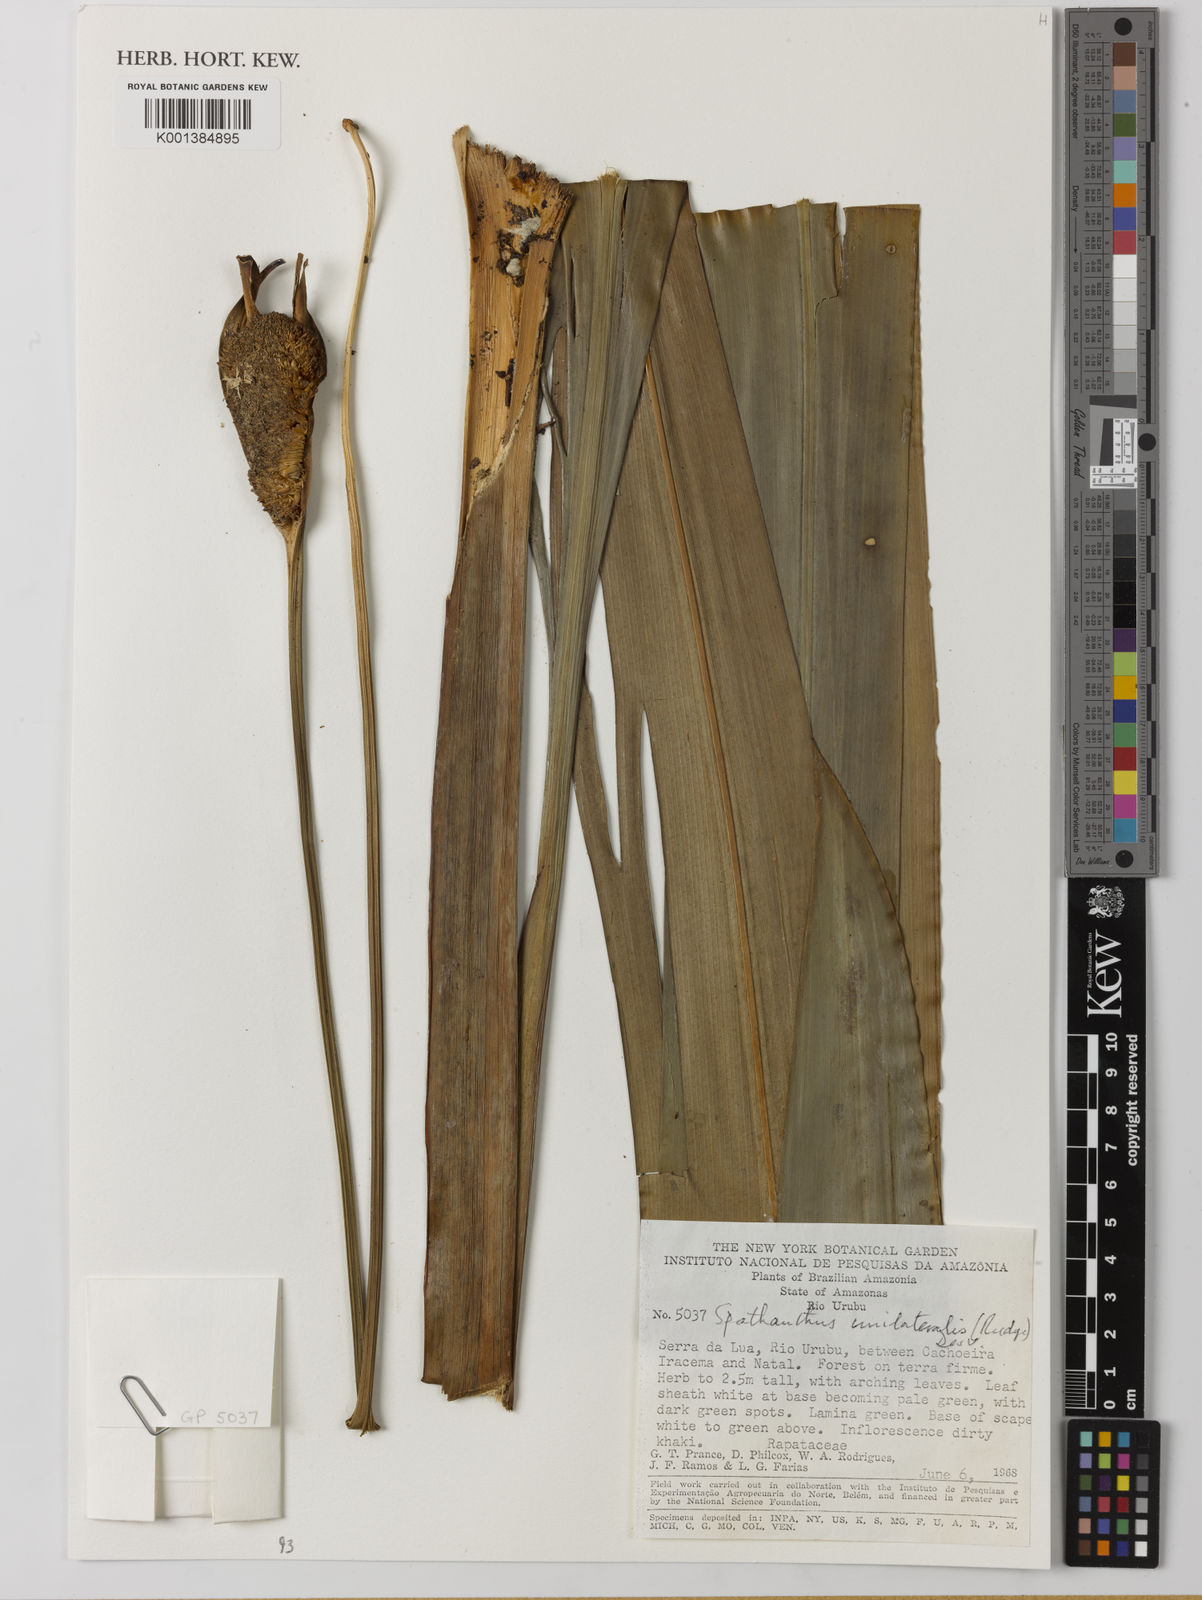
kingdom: Plantae
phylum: Tracheophyta
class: Liliopsida
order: Poales
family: Rapateaceae
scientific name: Rapateaceae
